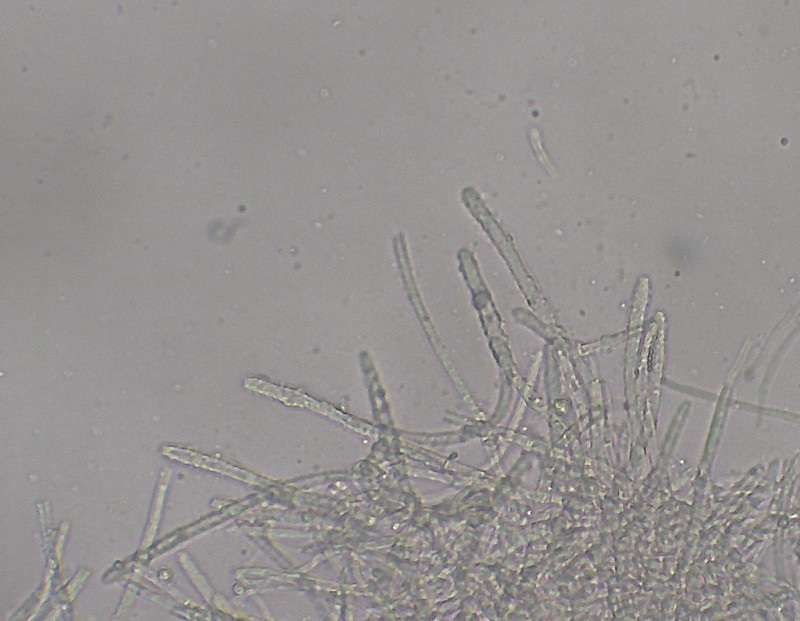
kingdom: Fungi
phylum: Ascomycota
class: Leotiomycetes
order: Helotiales
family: Lachnaceae
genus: Lachnellula
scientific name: Lachnellula occidentalis
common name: Larch disco
